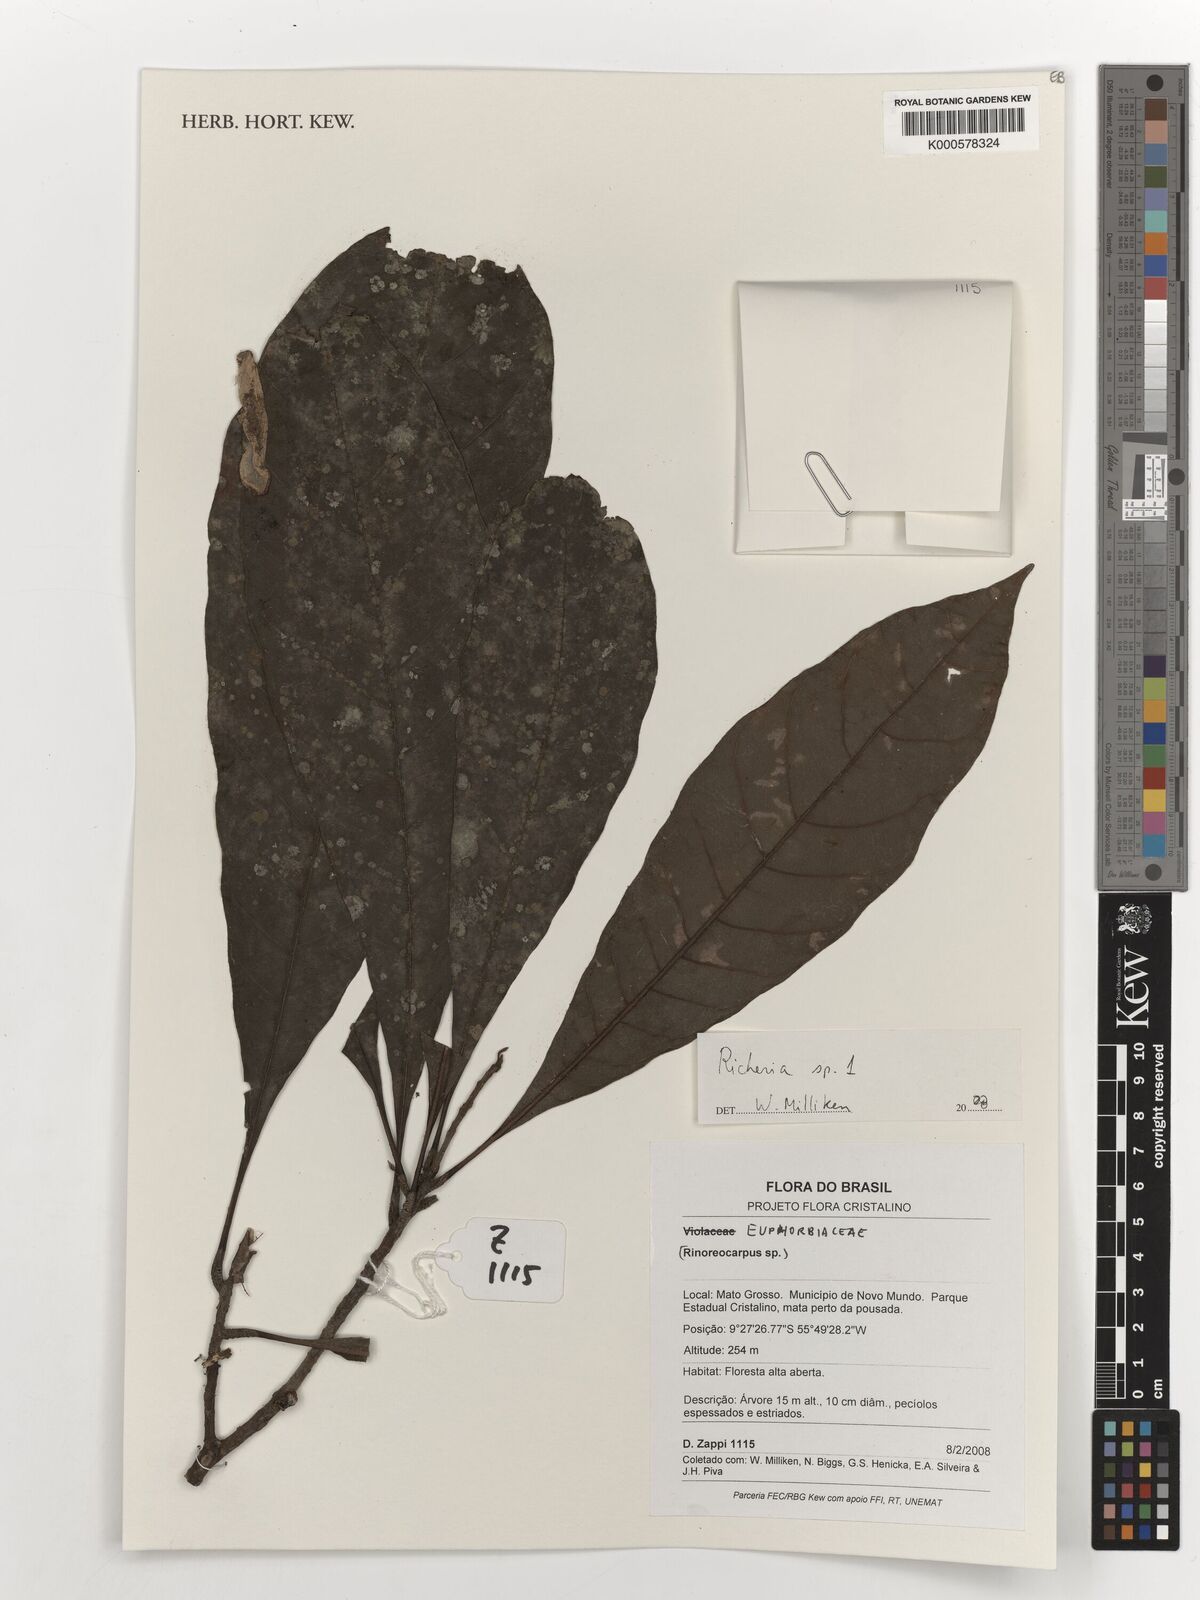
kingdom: Plantae
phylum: Tracheophyta
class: Magnoliopsida
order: Malpighiales
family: Phyllanthaceae
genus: Richeria
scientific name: Richeria
